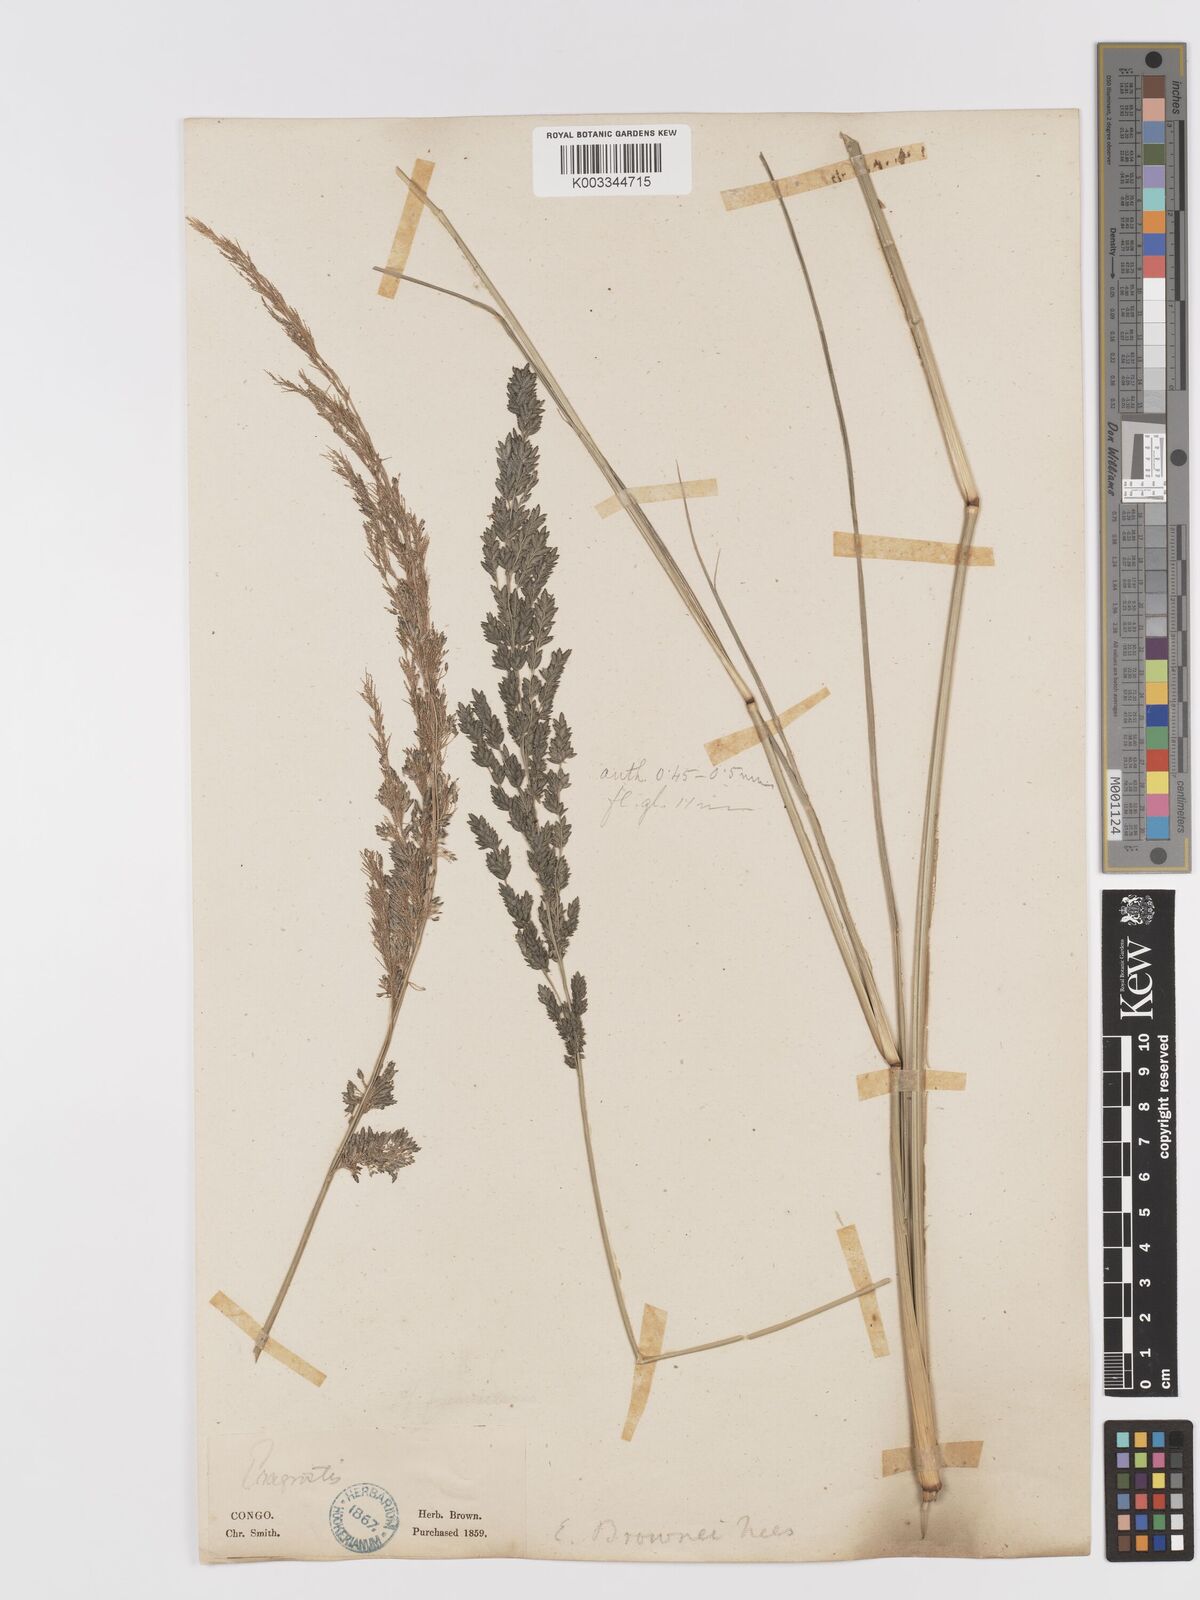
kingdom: Plantae
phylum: Tracheophyta
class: Liliopsida
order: Poales
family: Poaceae
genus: Eragrostis
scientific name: Eragrostis botryodes
